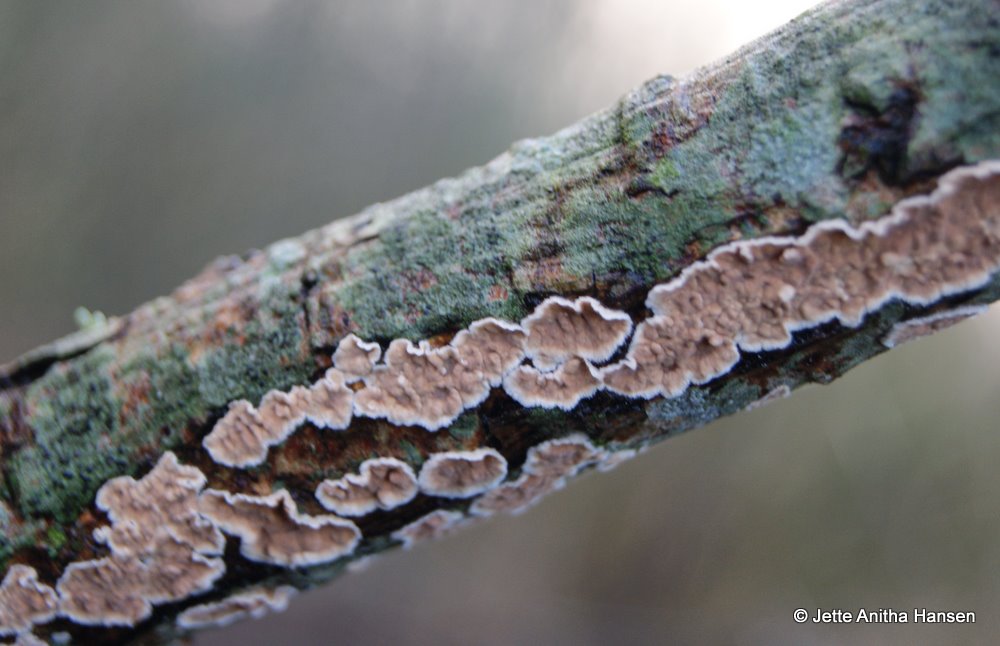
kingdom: Fungi
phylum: Basidiomycota
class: Agaricomycetes
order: Agaricales
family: Physalacriaceae
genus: Cylindrobasidium
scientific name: Cylindrobasidium evolvens
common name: sprækkehinde
